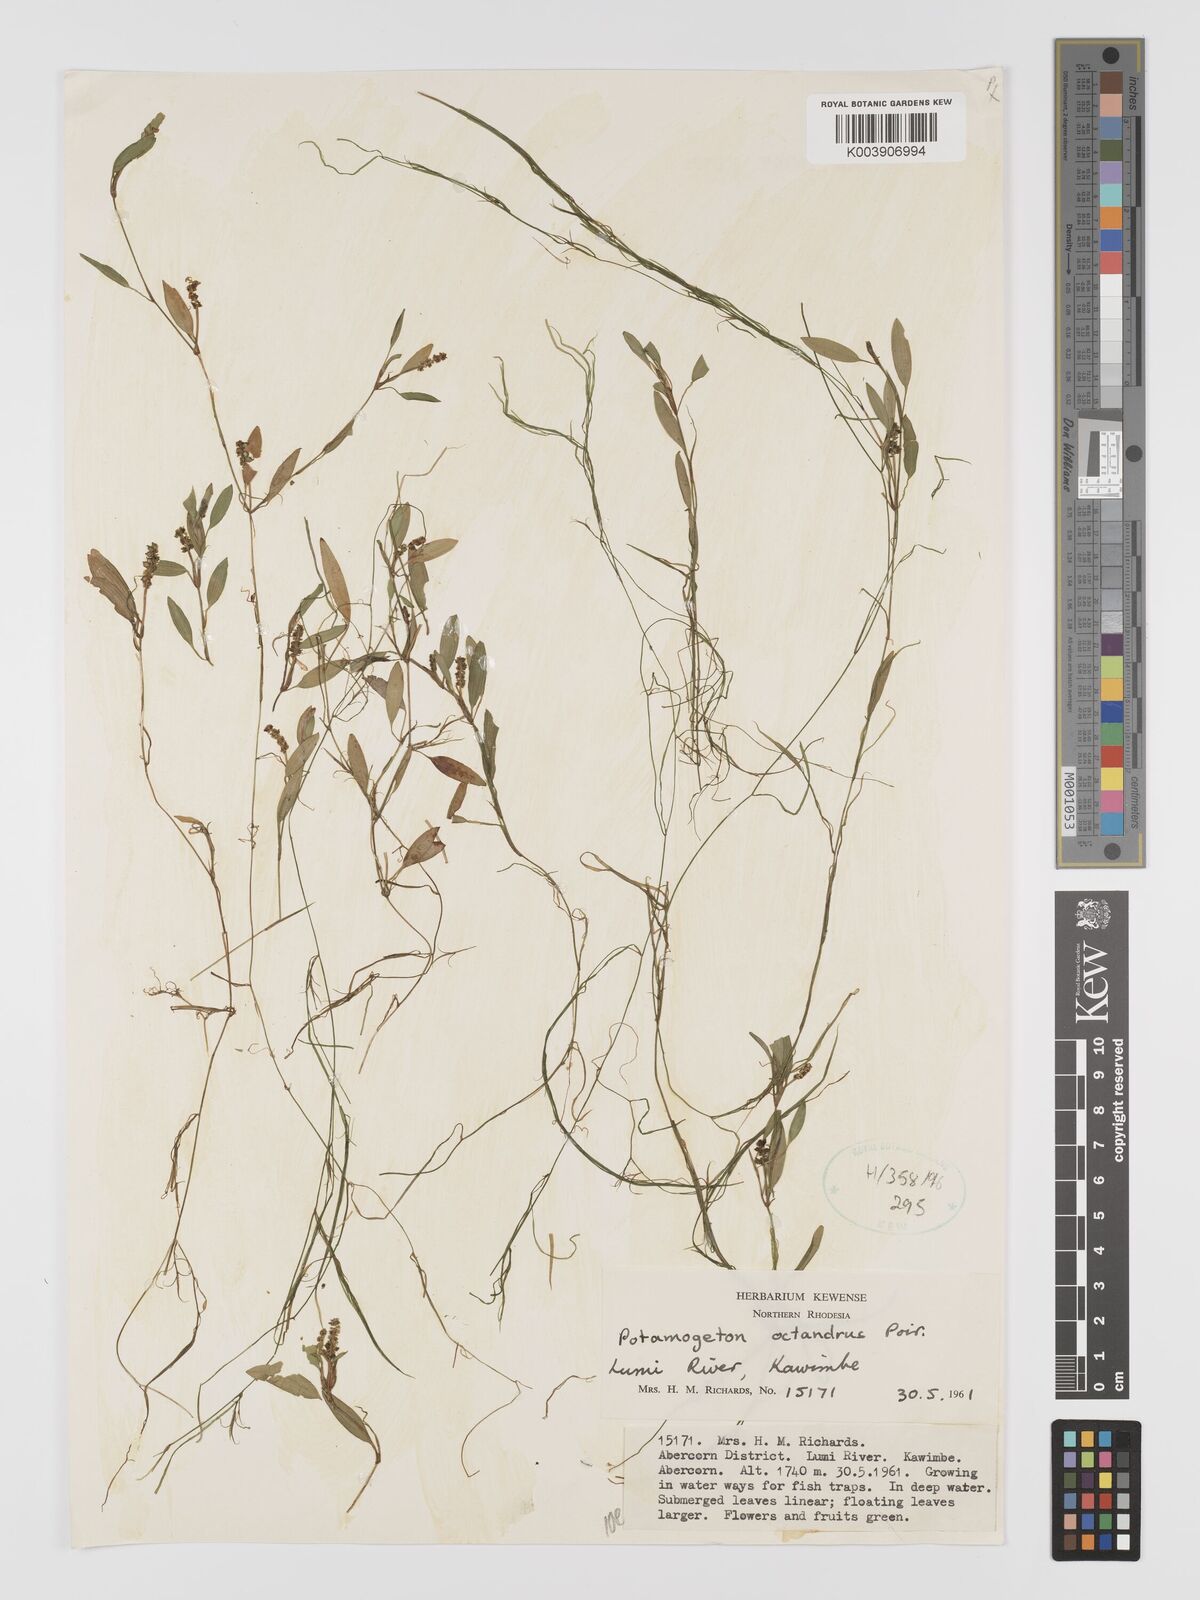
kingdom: Plantae
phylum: Tracheophyta
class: Liliopsida
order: Alismatales
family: Potamogetonaceae
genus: Potamogeton
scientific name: Potamogeton octandrus
